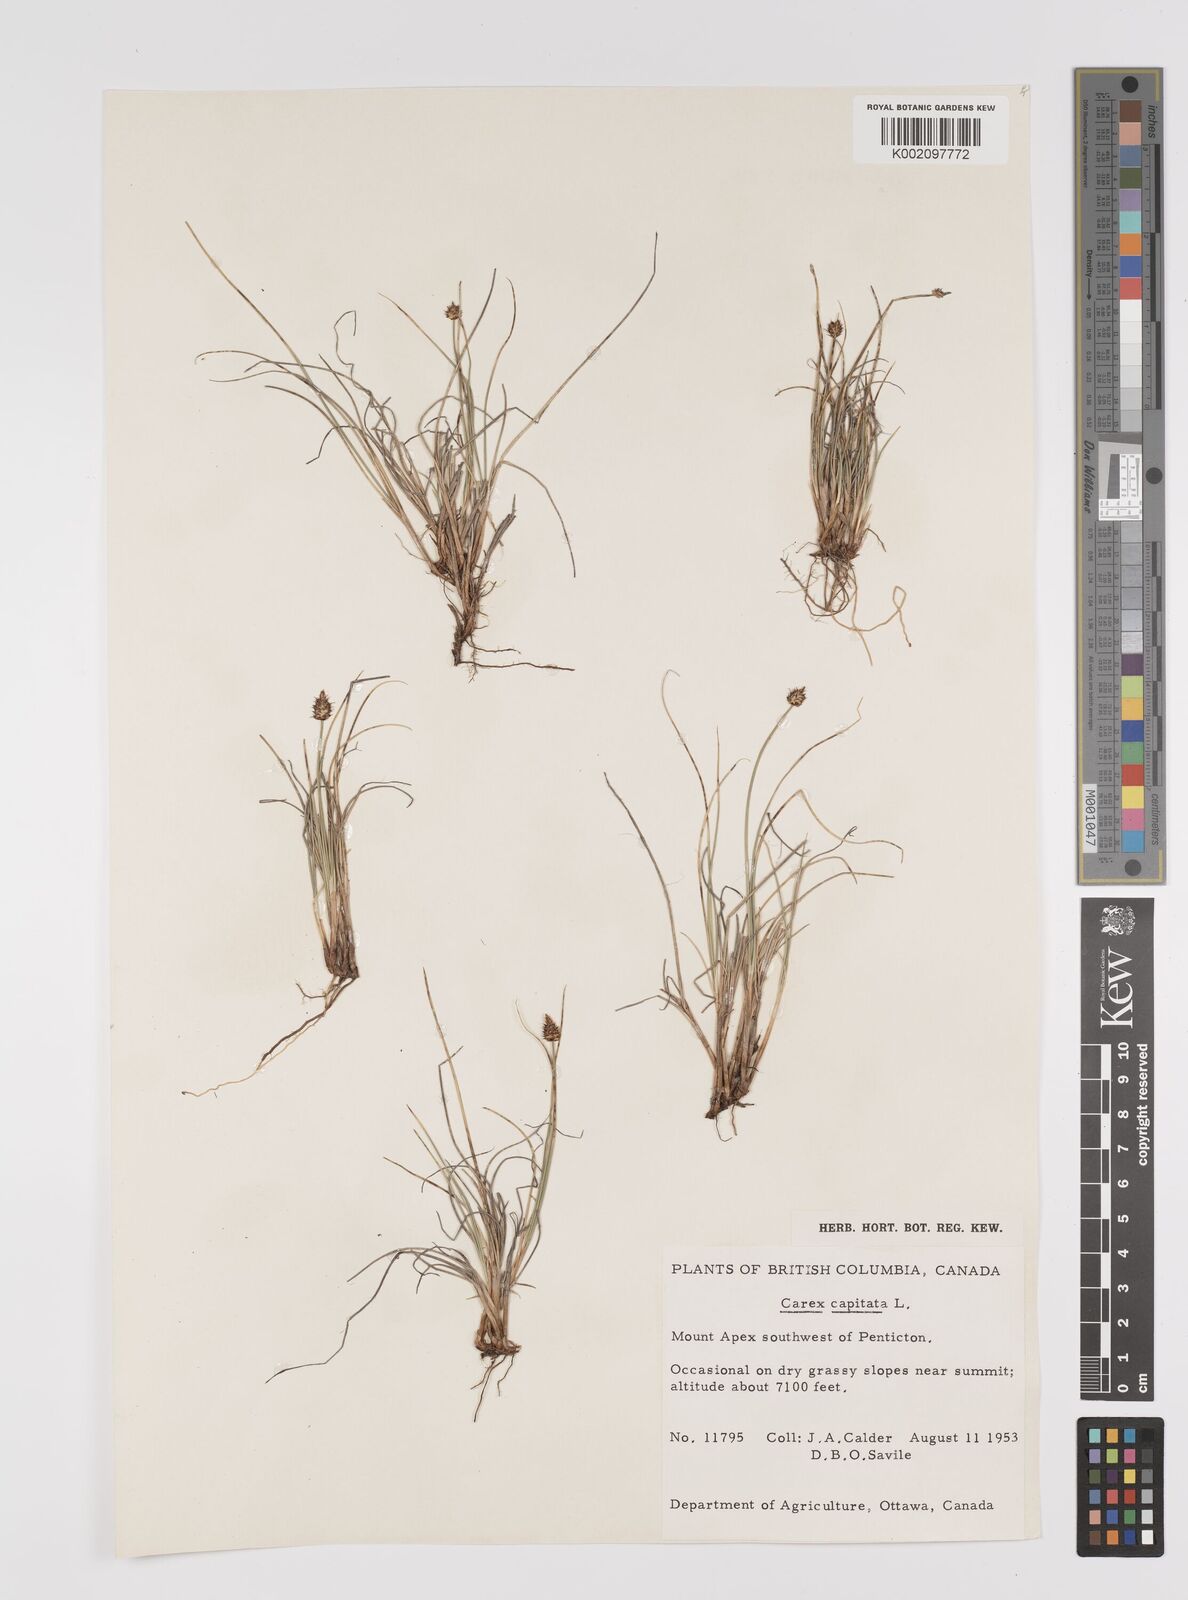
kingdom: Plantae
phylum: Tracheophyta
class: Liliopsida
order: Poales
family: Cyperaceae
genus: Carex
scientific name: Carex capitata
